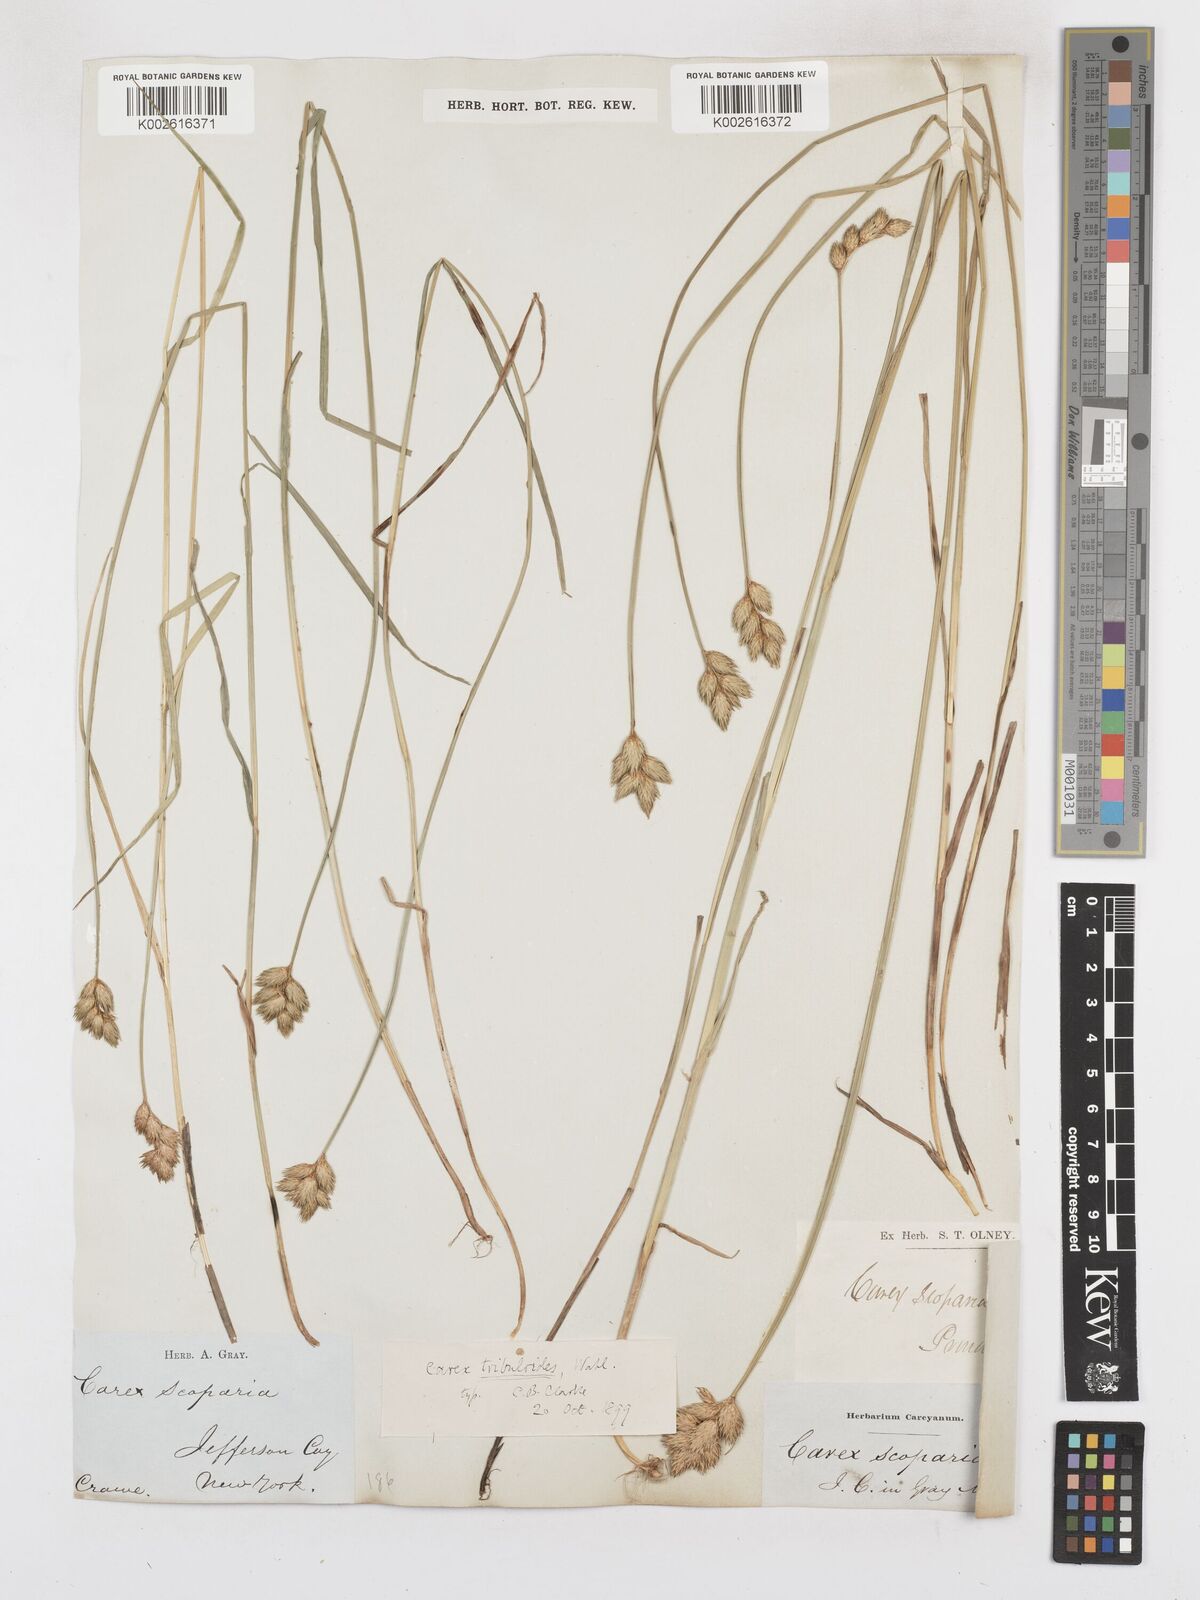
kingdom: Plantae
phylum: Tracheophyta
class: Liliopsida
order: Poales
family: Cyperaceae
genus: Carex
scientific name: Carex tribuloides
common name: Blunt broom sedge
